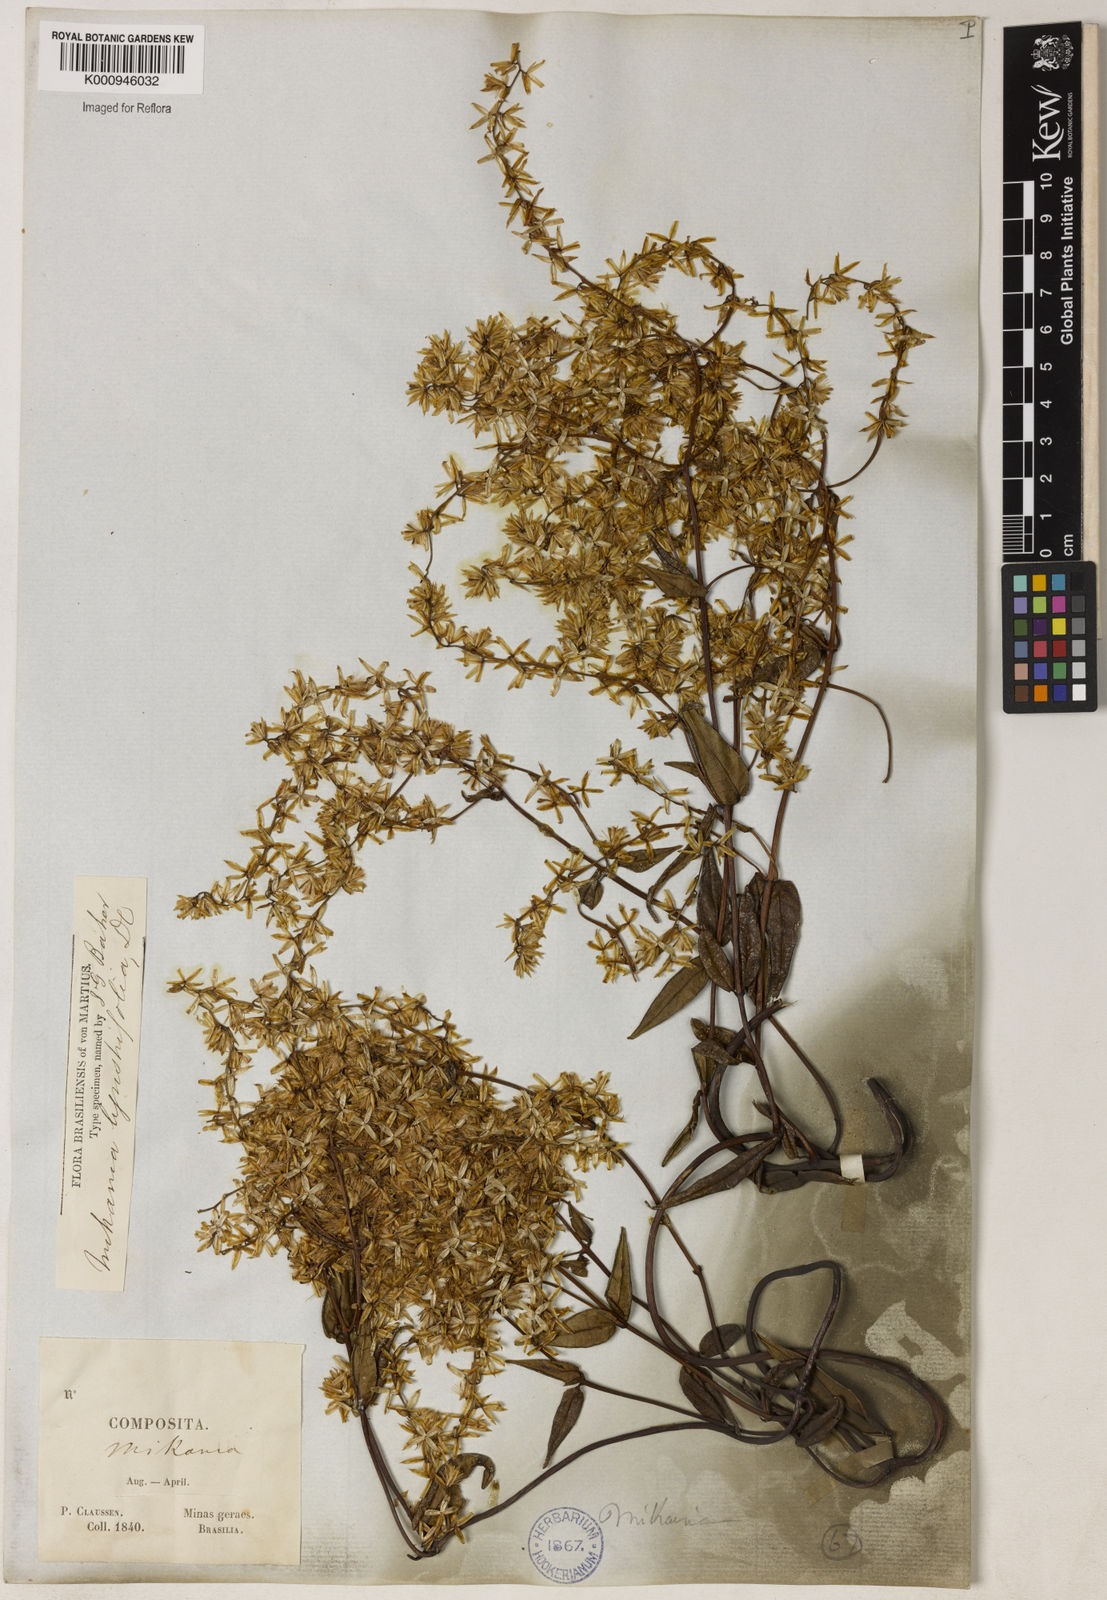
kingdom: Plantae
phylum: Tracheophyta
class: Magnoliopsida
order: Asterales
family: Asteraceae
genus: Mikania
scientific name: Mikania ligustrifolia
